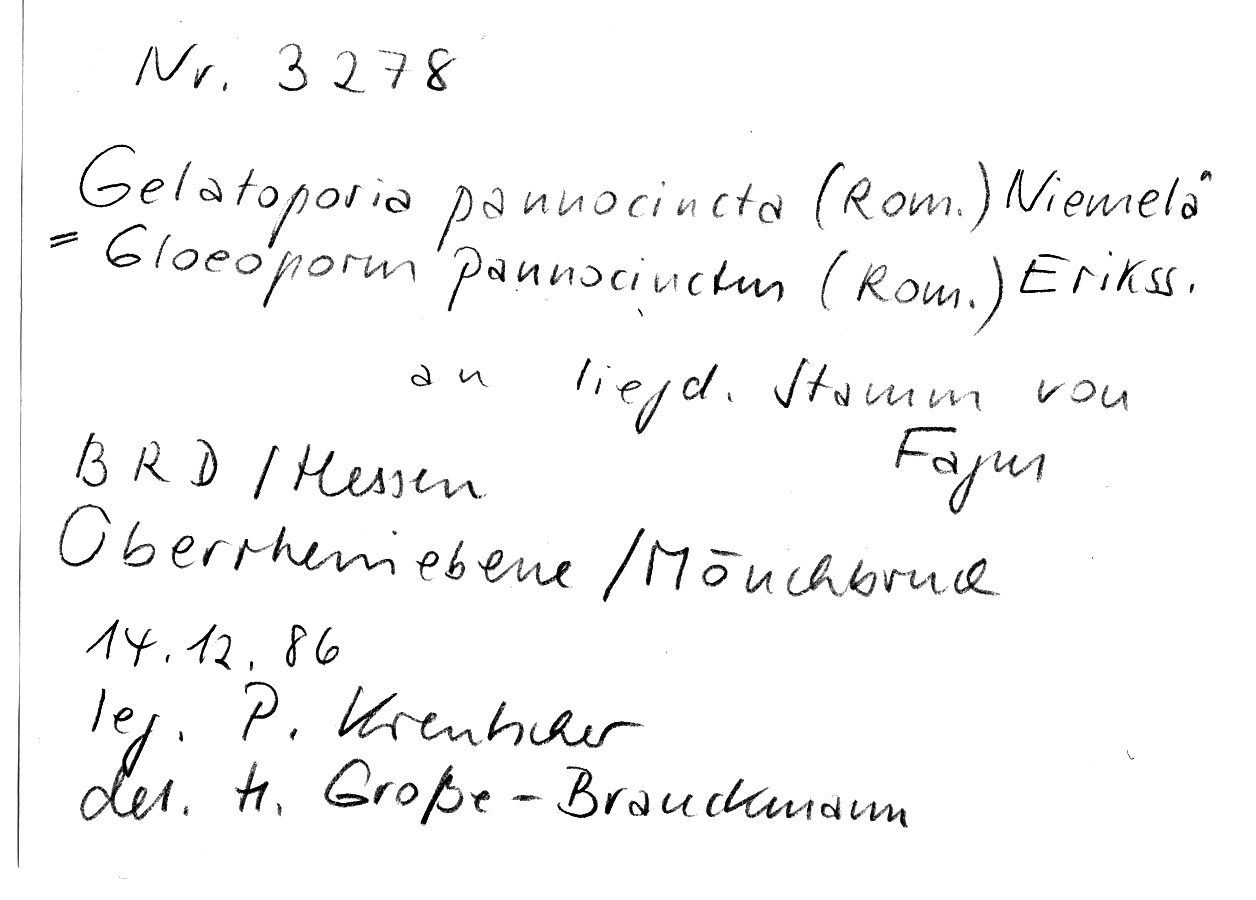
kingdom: Plantae
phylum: Tracheophyta
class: Magnoliopsida
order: Fagales
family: Fagaceae
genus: Fagus
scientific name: Fagus sylvatica
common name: Beech
